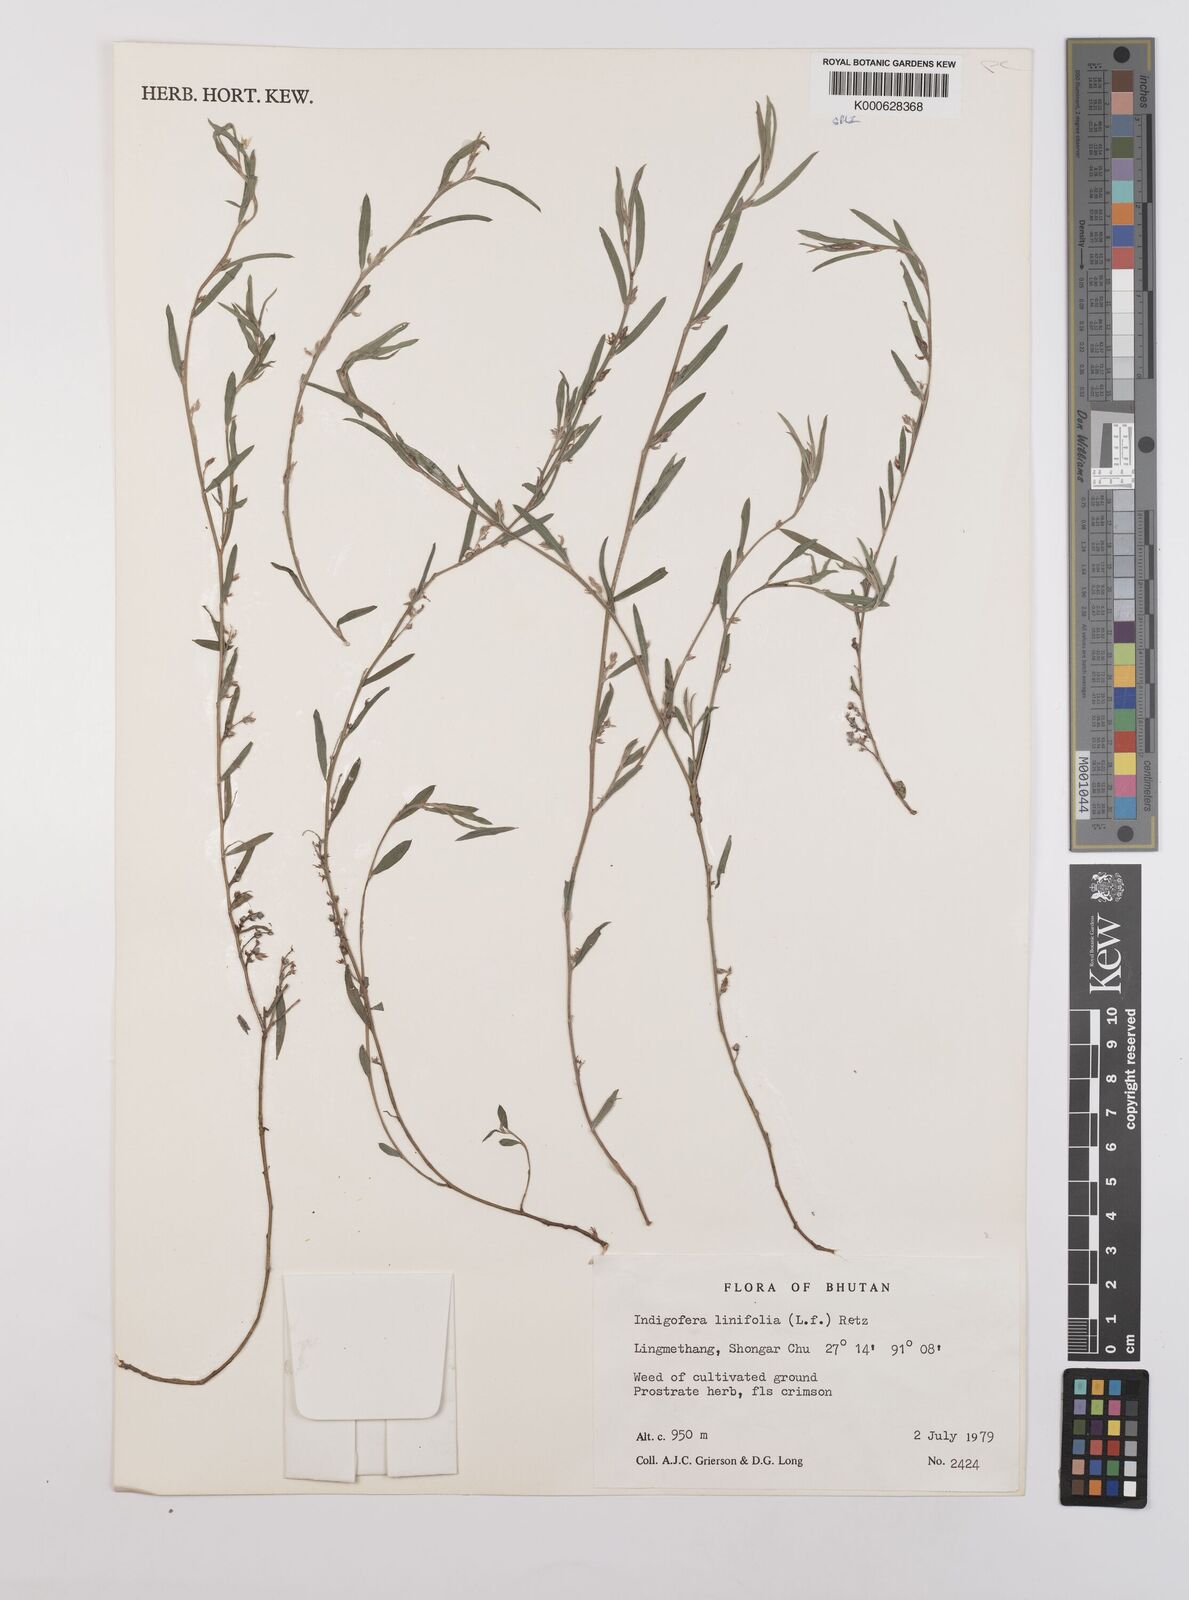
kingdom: Plantae
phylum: Tracheophyta
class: Magnoliopsida
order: Fabales
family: Fabaceae
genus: Indigofera
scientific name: Indigofera linifolia
